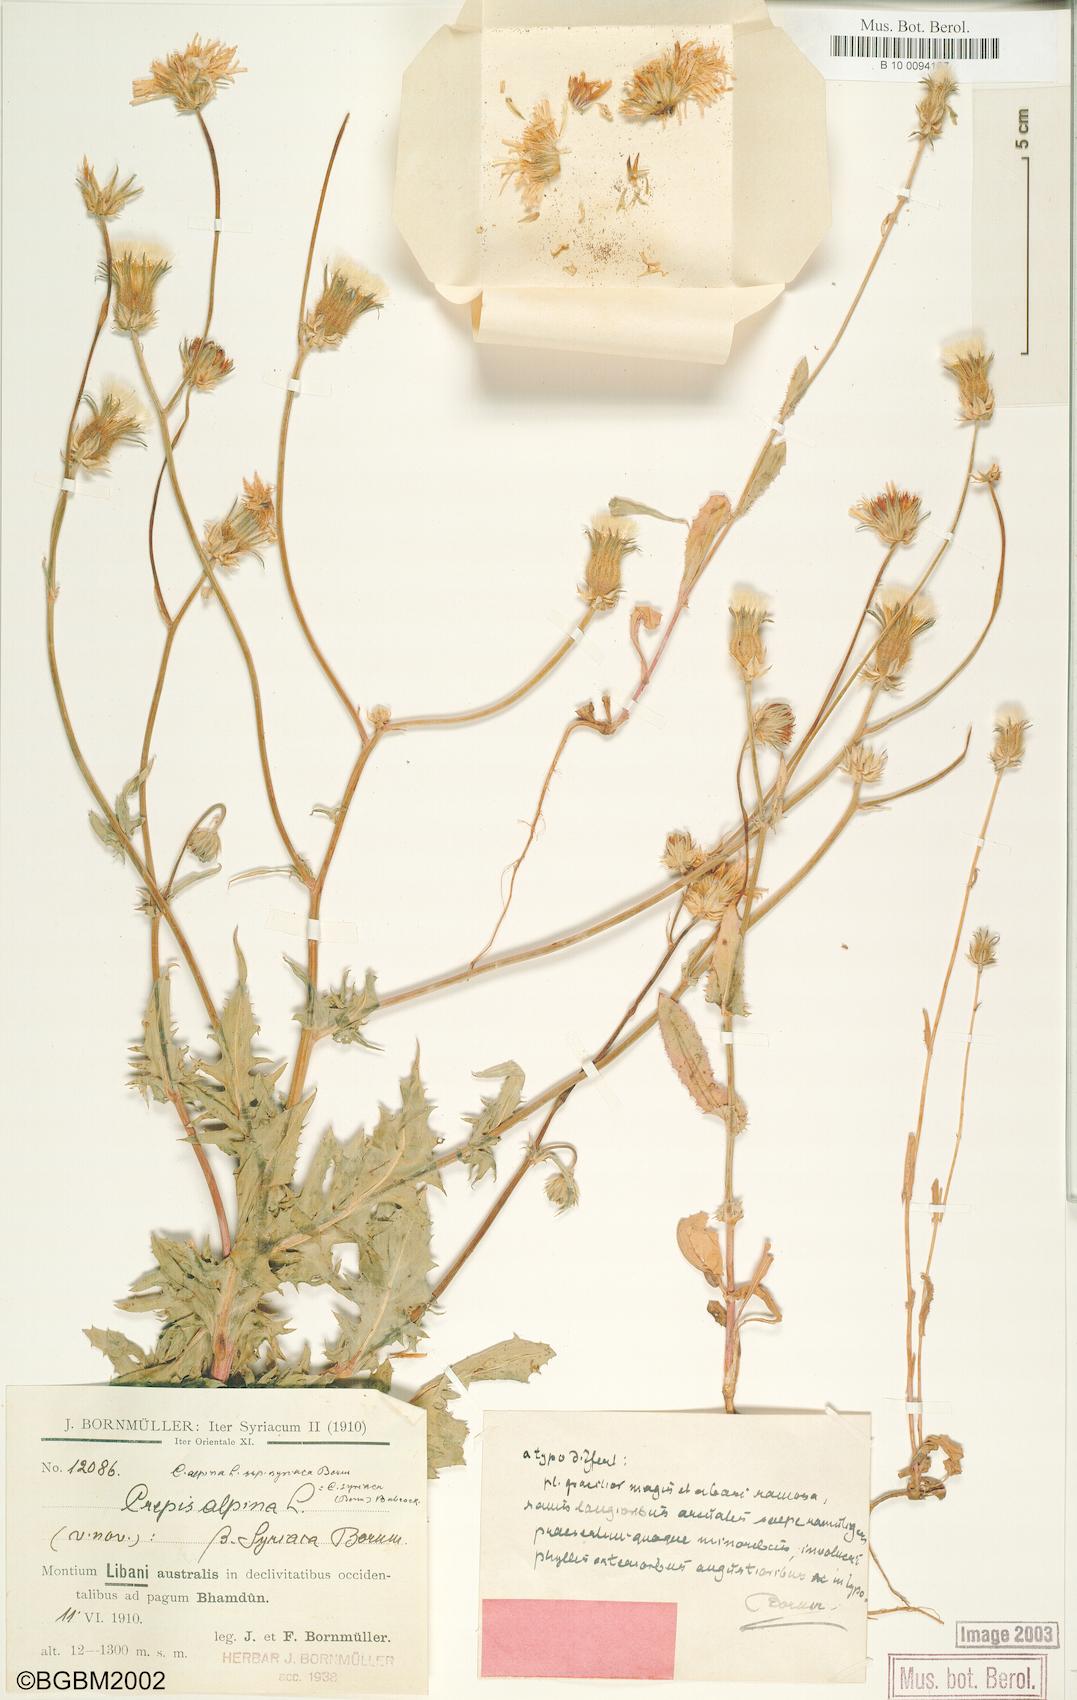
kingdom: Plantae
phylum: Tracheophyta
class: Magnoliopsida
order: Asterales
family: Asteraceae
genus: Crepis
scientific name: Crepis syriaca
